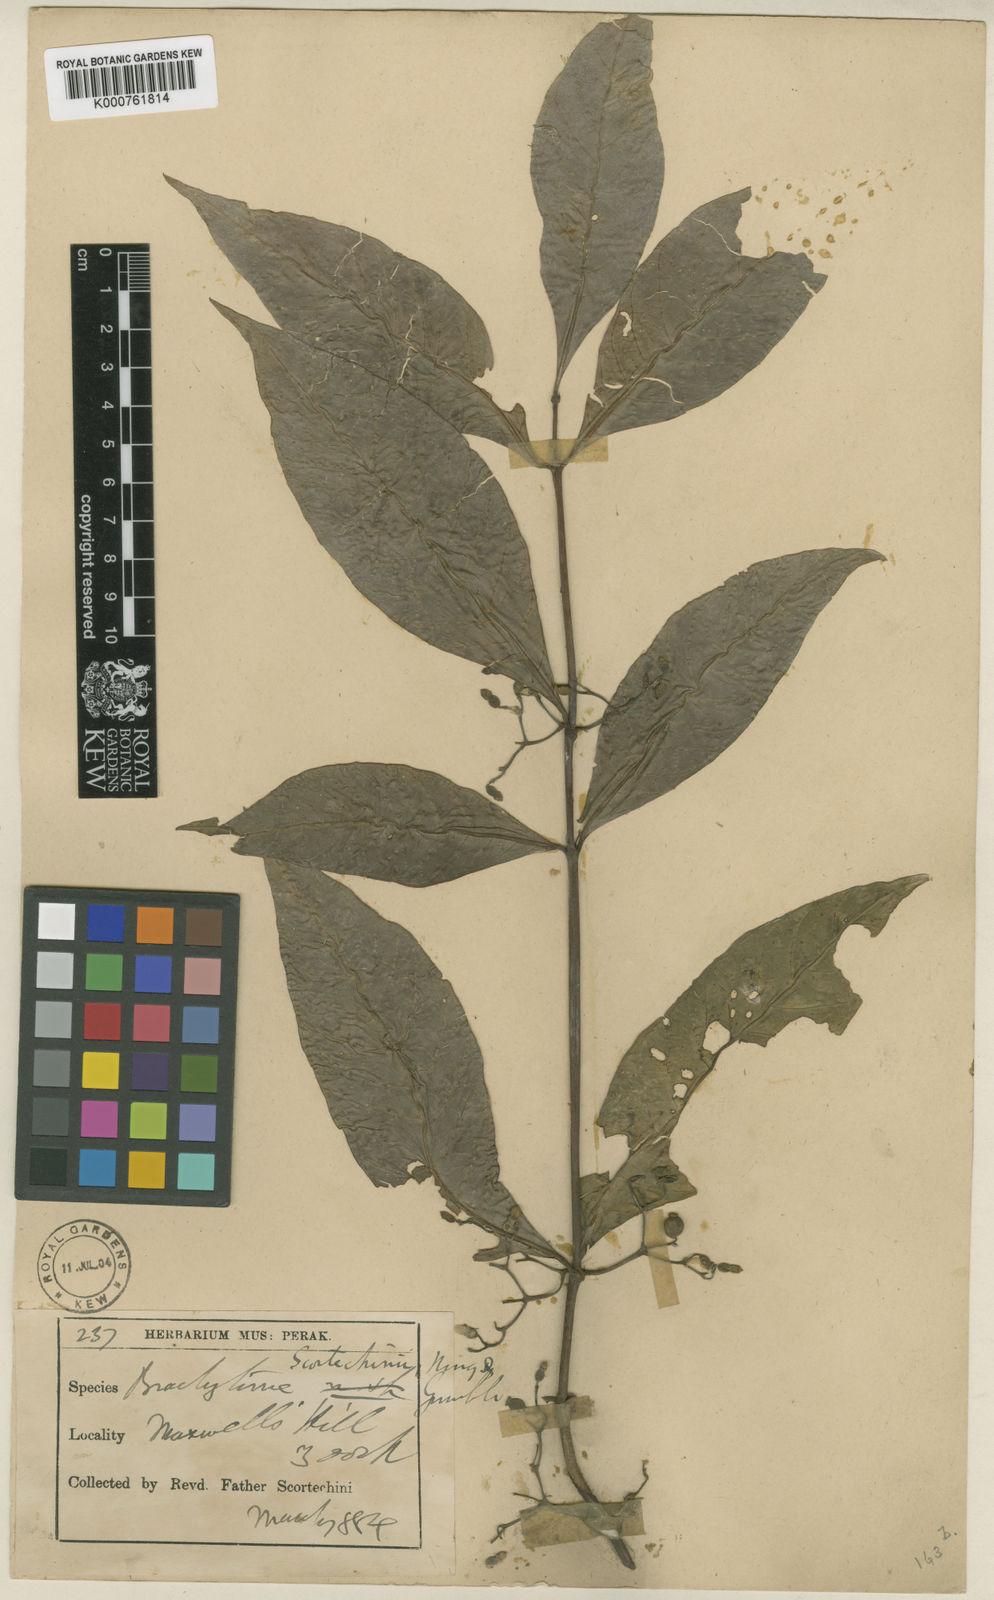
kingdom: Plantae
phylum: Tracheophyta
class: Magnoliopsida
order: Gentianales
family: Rubiaceae
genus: Brachytome
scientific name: Brachytome scortechinii
